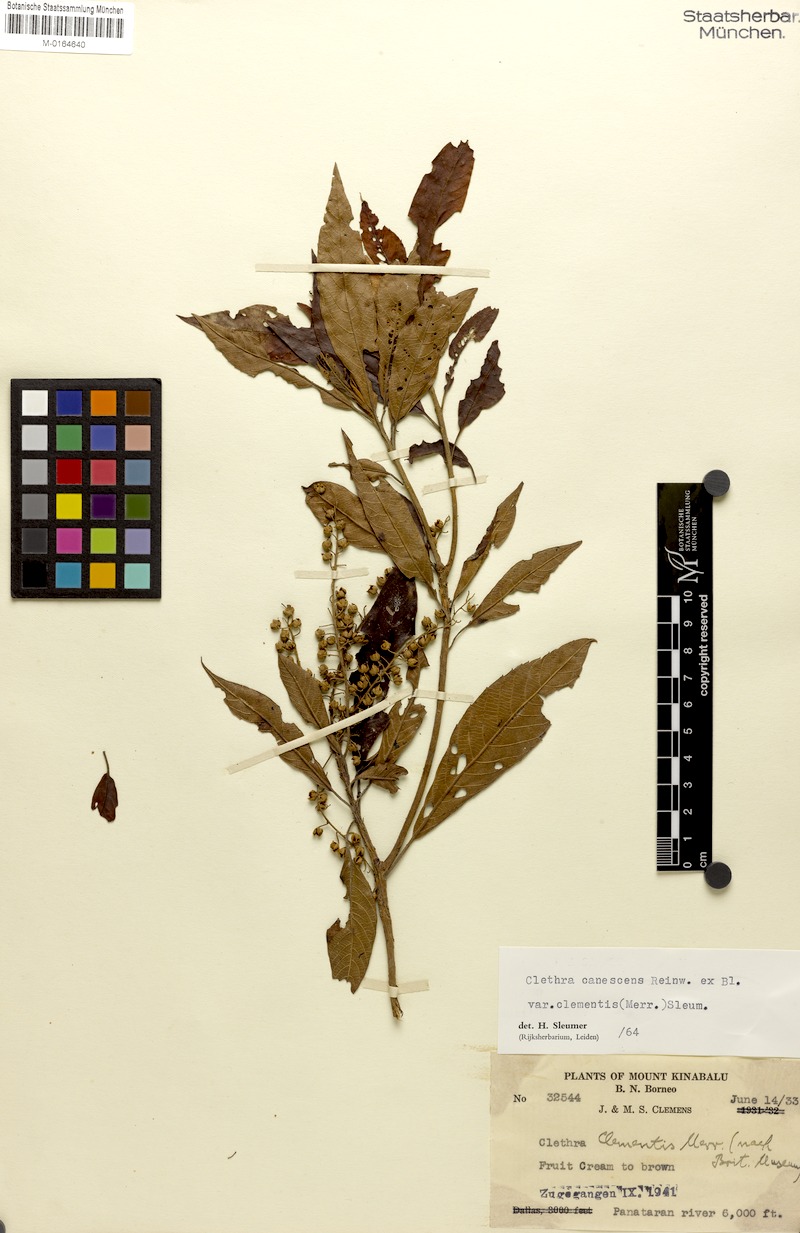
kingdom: Plantae
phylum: Tracheophyta
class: Magnoliopsida
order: Ericales
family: Clethraceae
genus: Clethra
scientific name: Clethra canescens
